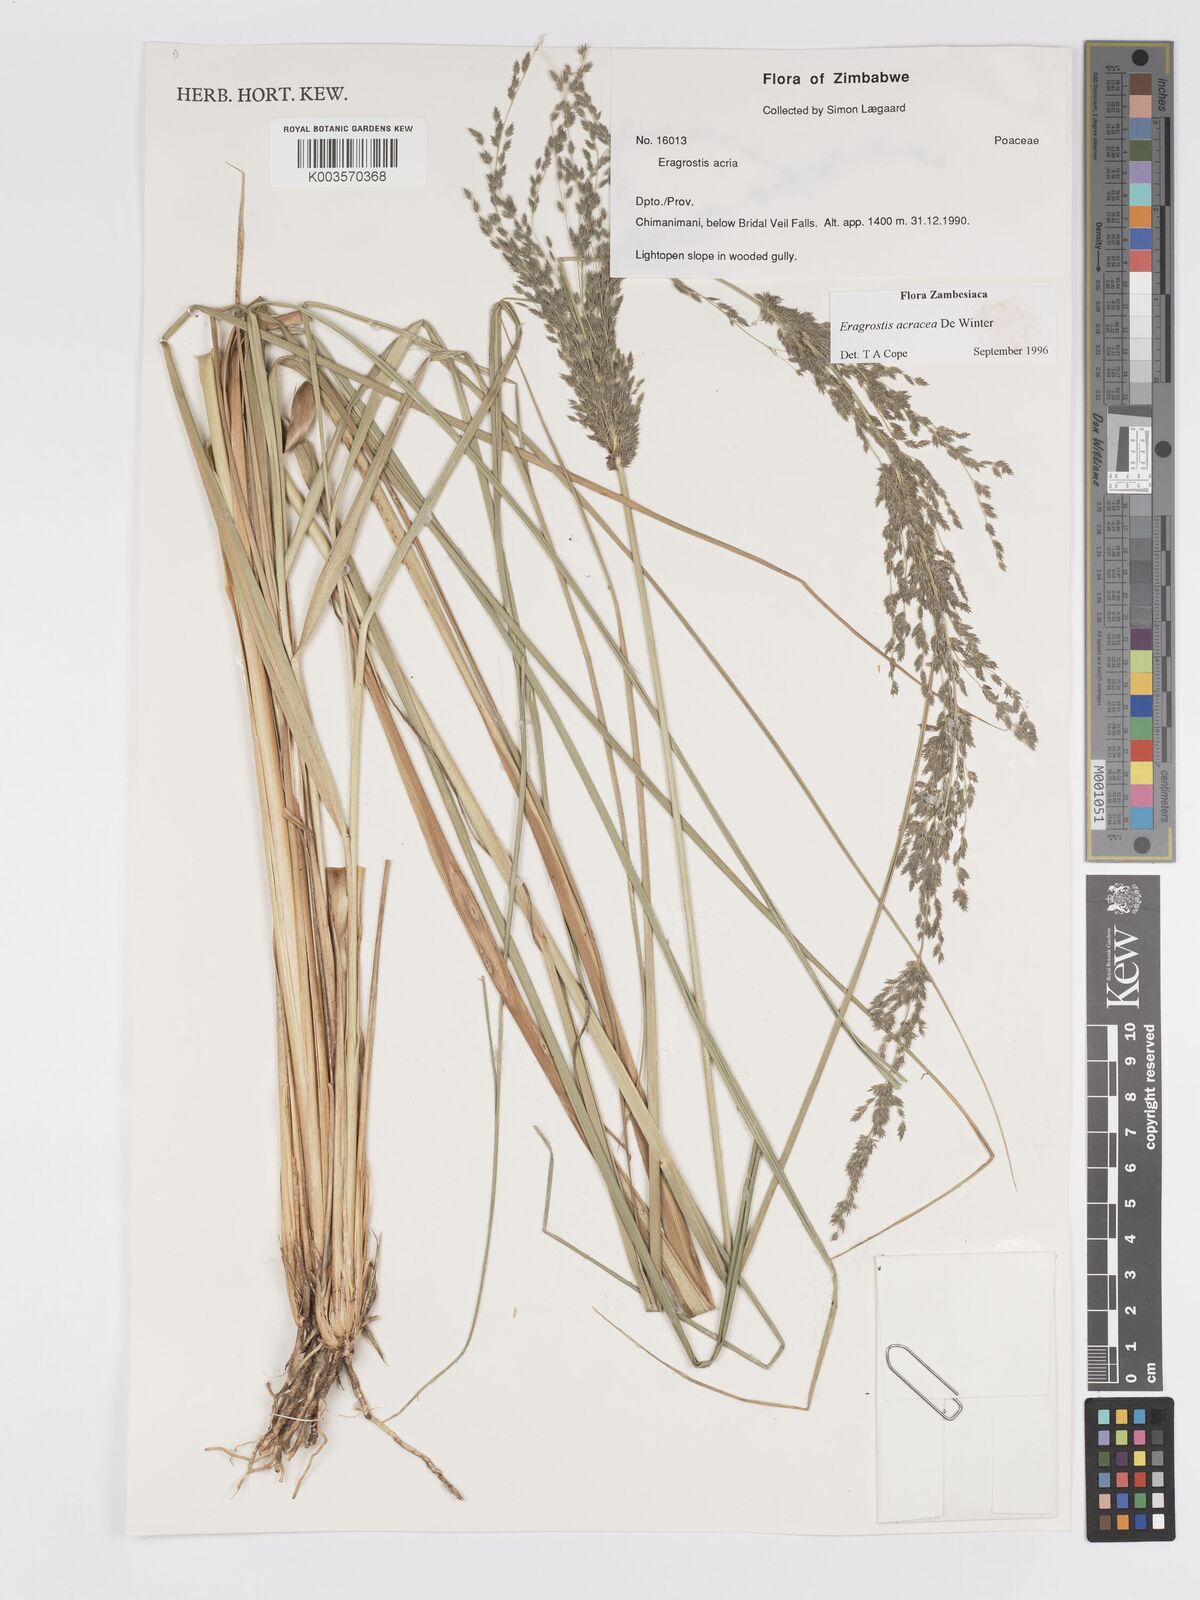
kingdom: Plantae
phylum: Tracheophyta
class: Liliopsida
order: Poales
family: Poaceae
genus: Eragrostis
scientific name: Eragrostis acraea
